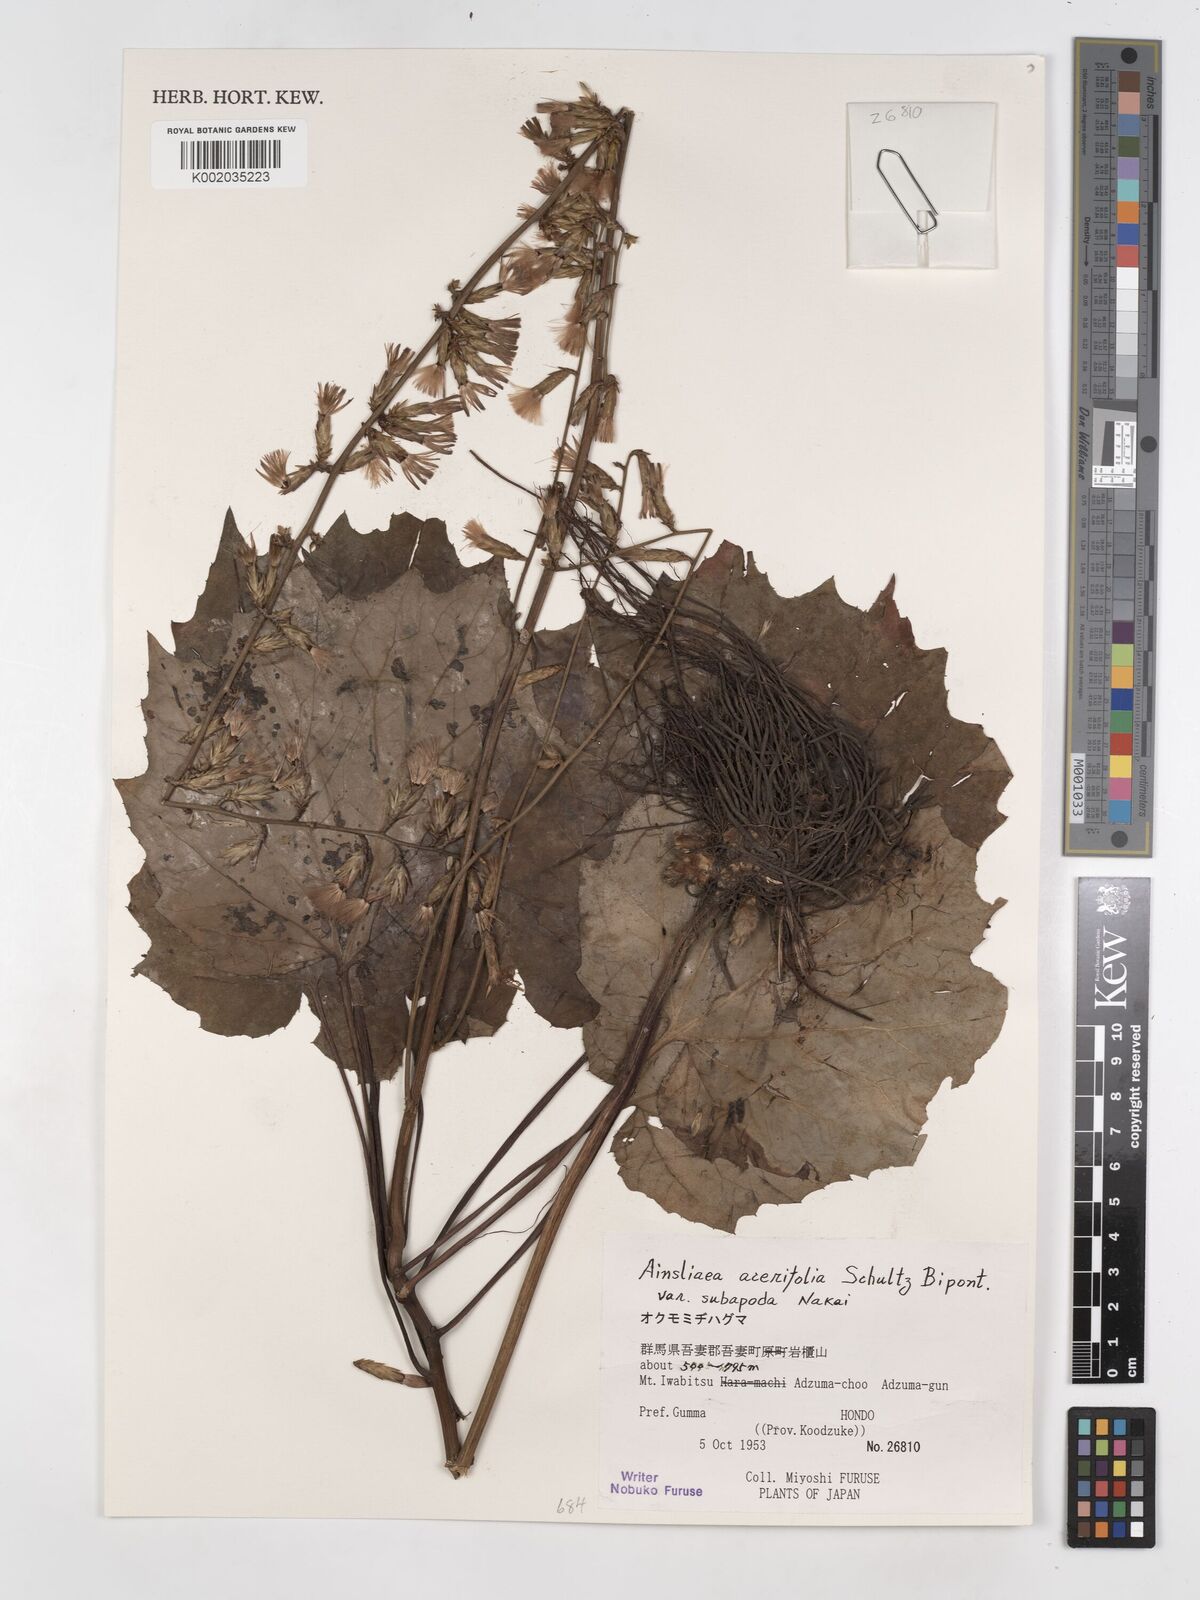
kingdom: Plantae
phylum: Tracheophyta
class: Magnoliopsida
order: Asterales
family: Asteraceae
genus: Ainsliaea
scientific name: Ainsliaea acerifolia
